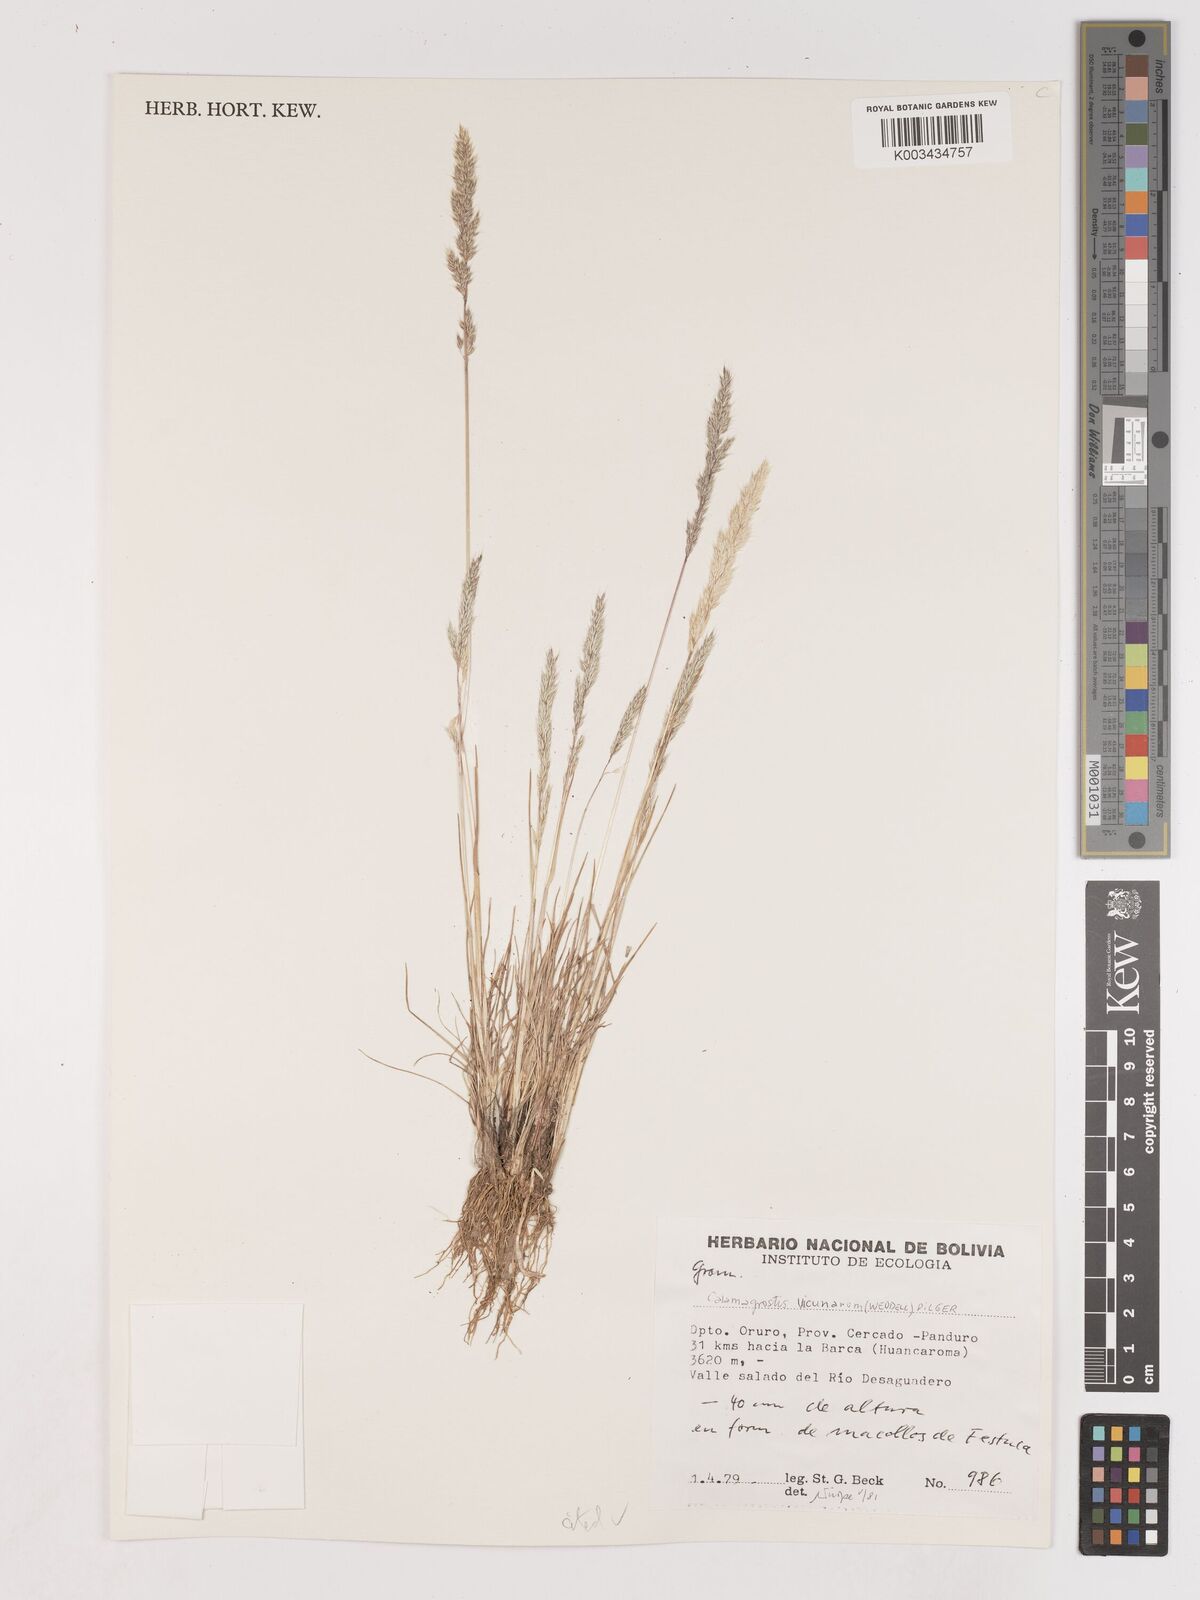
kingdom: Plantae
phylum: Tracheophyta
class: Liliopsida
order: Poales
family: Poaceae
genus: Cinnagrostis
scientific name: Cinnagrostis vicunarum
